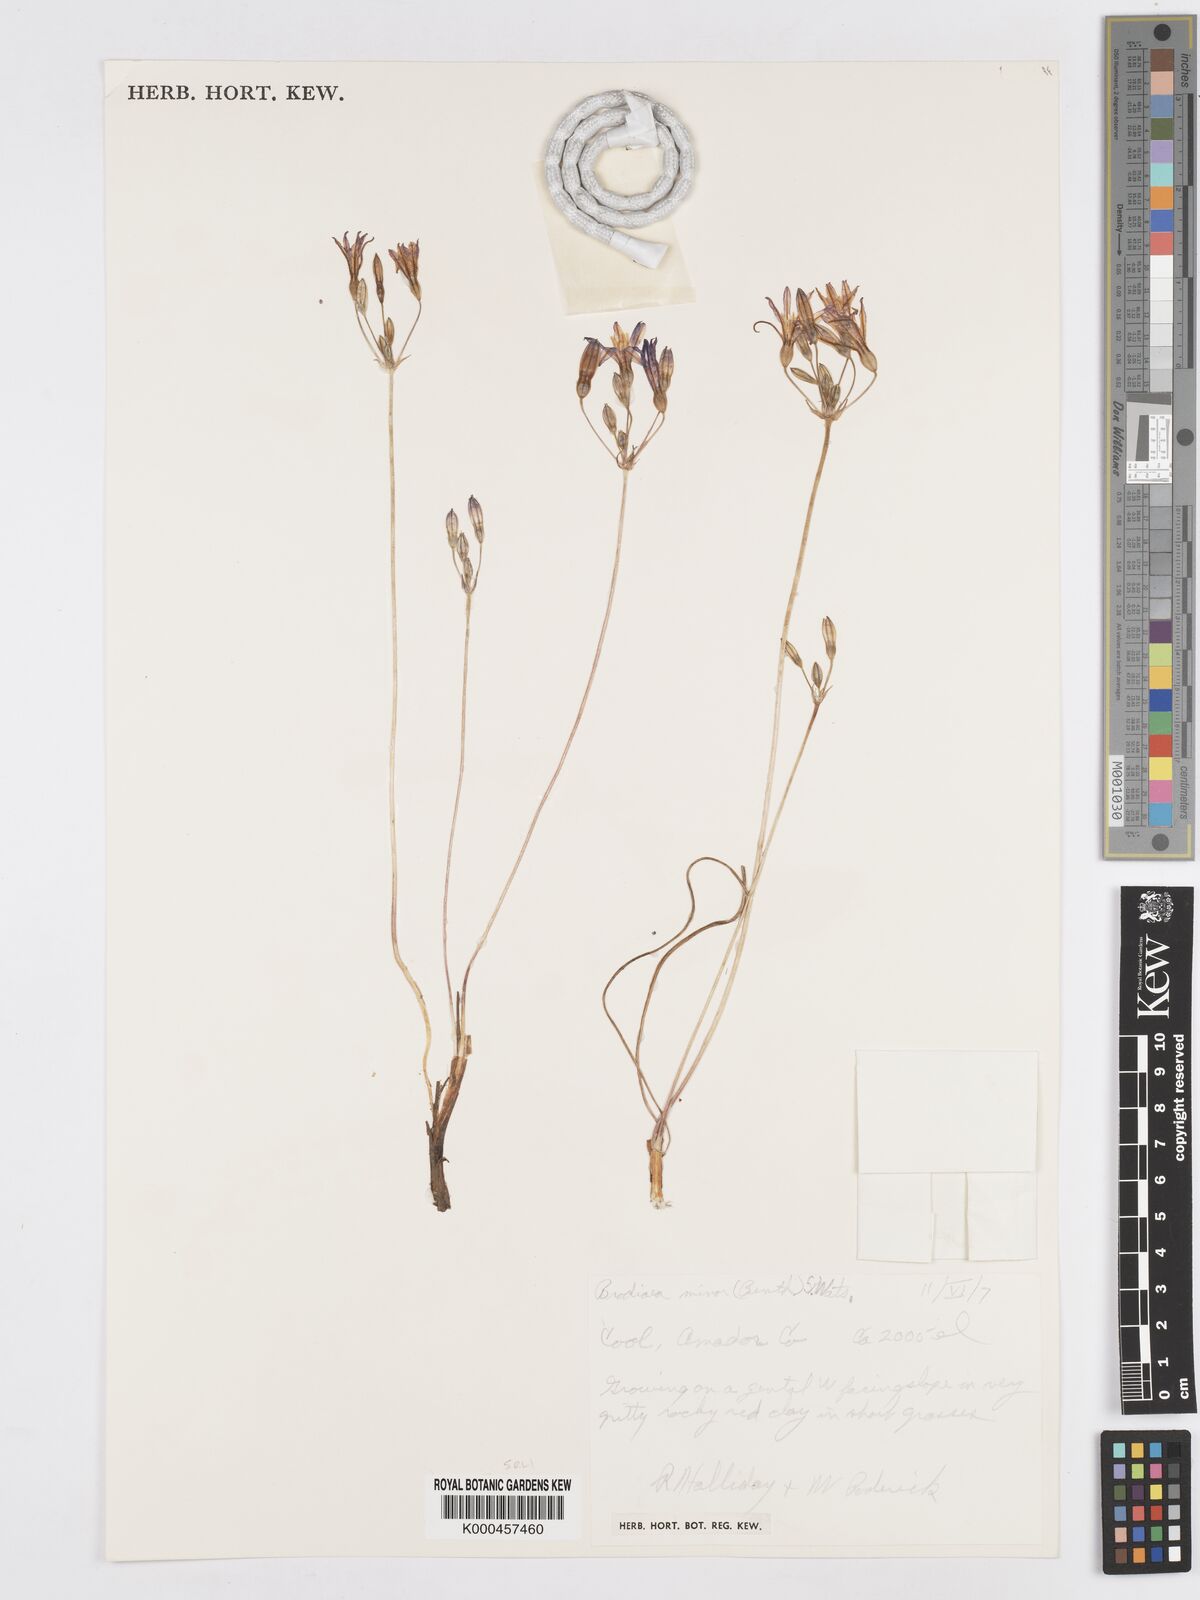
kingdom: Plantae
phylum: Tracheophyta
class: Liliopsida
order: Asparagales
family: Asparagaceae
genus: Brodiaea
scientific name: Brodiaea minor
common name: Dwarf brodiaea
